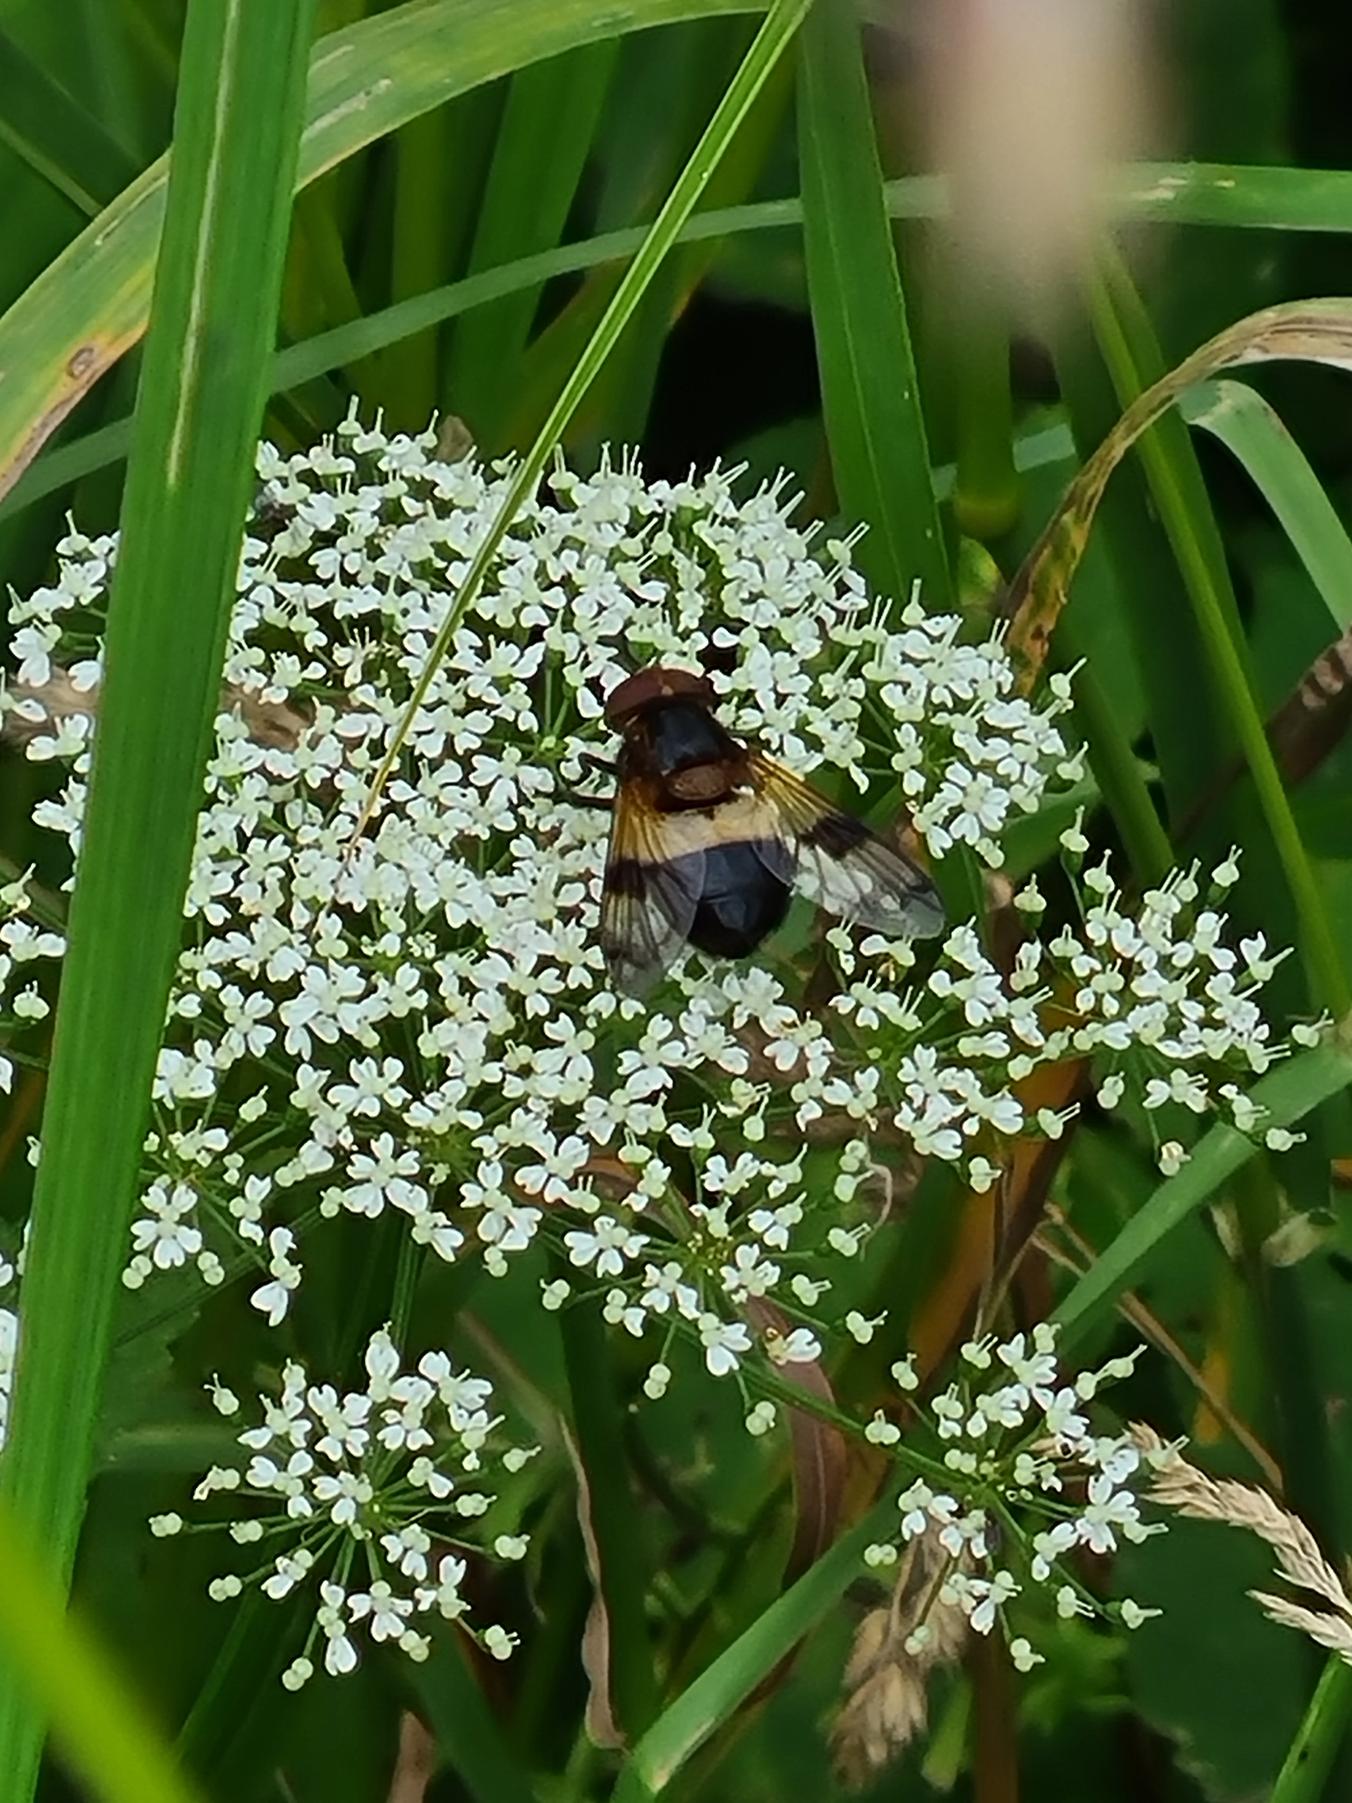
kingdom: Animalia
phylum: Arthropoda
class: Insecta
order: Diptera
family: Syrphidae
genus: Volucella
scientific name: Volucella pellucens
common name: Hvidbåndet humlesvirreflue
